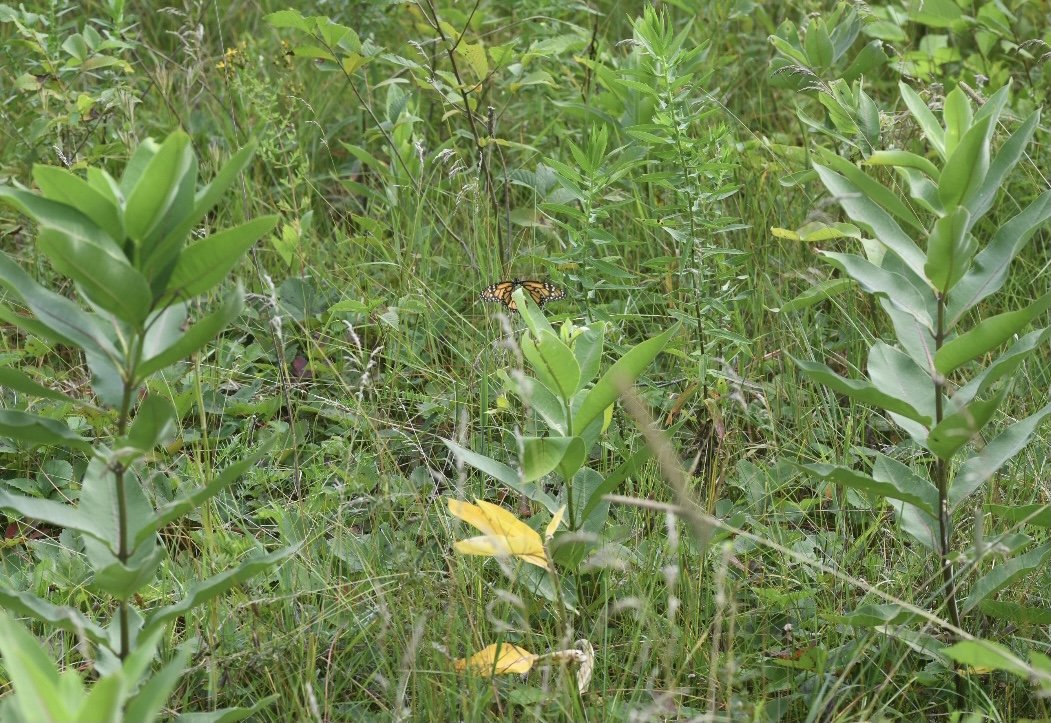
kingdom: Animalia
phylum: Arthropoda
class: Insecta
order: Lepidoptera
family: Nymphalidae
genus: Danaus
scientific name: Danaus plexippus
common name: Monarch
